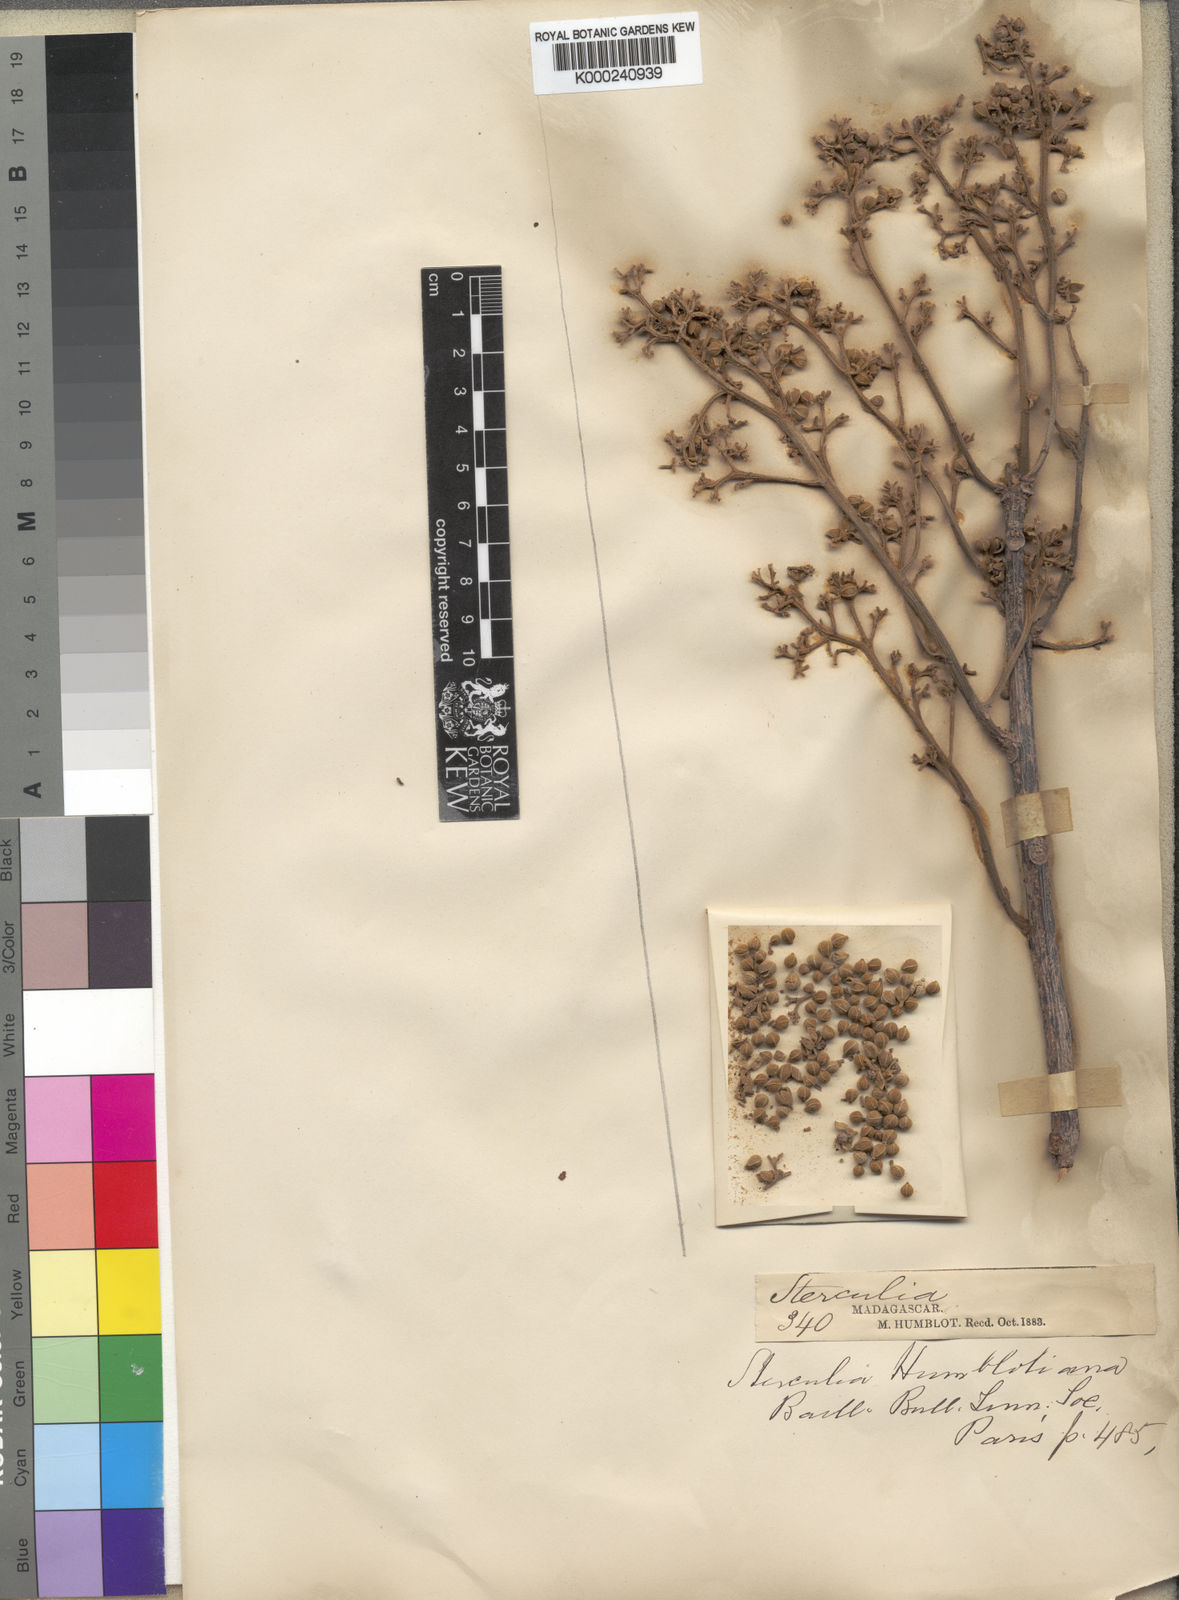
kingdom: Plantae
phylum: Tracheophyta
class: Magnoliopsida
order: Malvales
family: Malvaceae
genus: Sterculia
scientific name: Sterculia tavia
